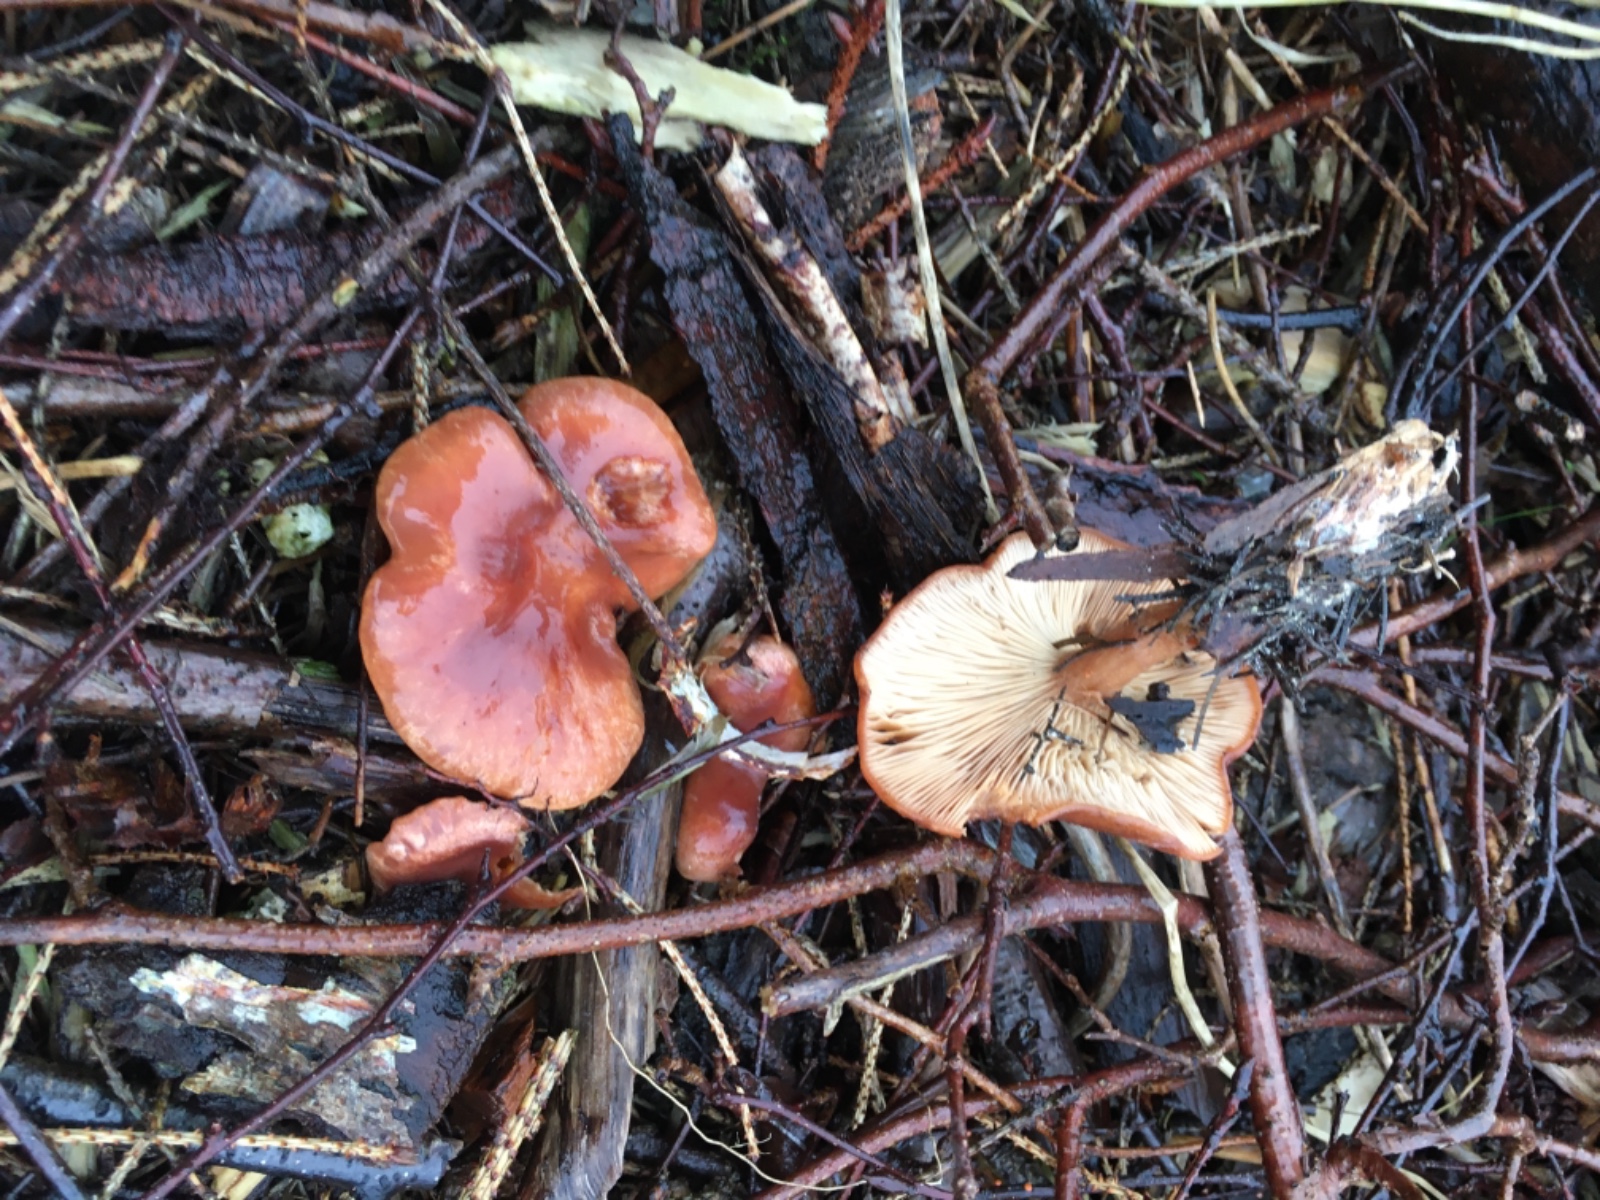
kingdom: Fungi
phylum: Basidiomycota
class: Agaricomycetes
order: Agaricales
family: Tricholomataceae
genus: Paralepista
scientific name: Paralepista flaccida
